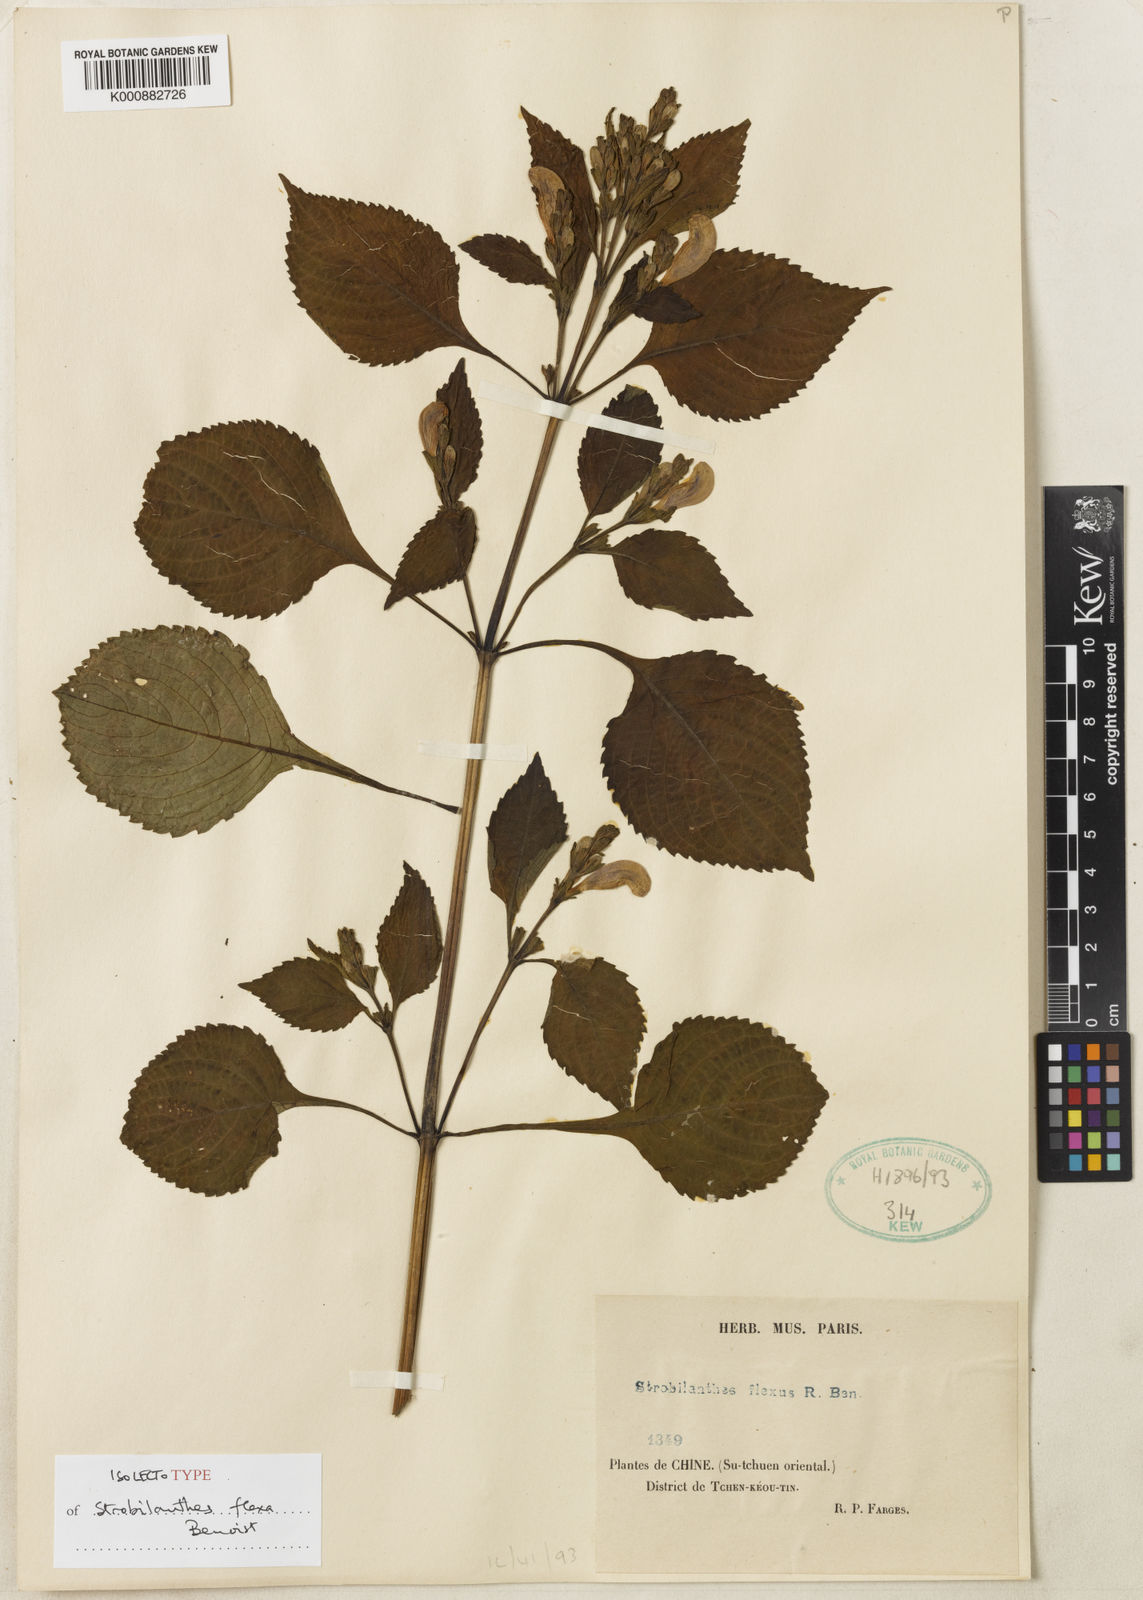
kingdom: Plantae
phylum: Tracheophyta
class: Magnoliopsida
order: Lamiales
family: Acanthaceae
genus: Strobilanthes
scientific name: Strobilanthes versicolor
